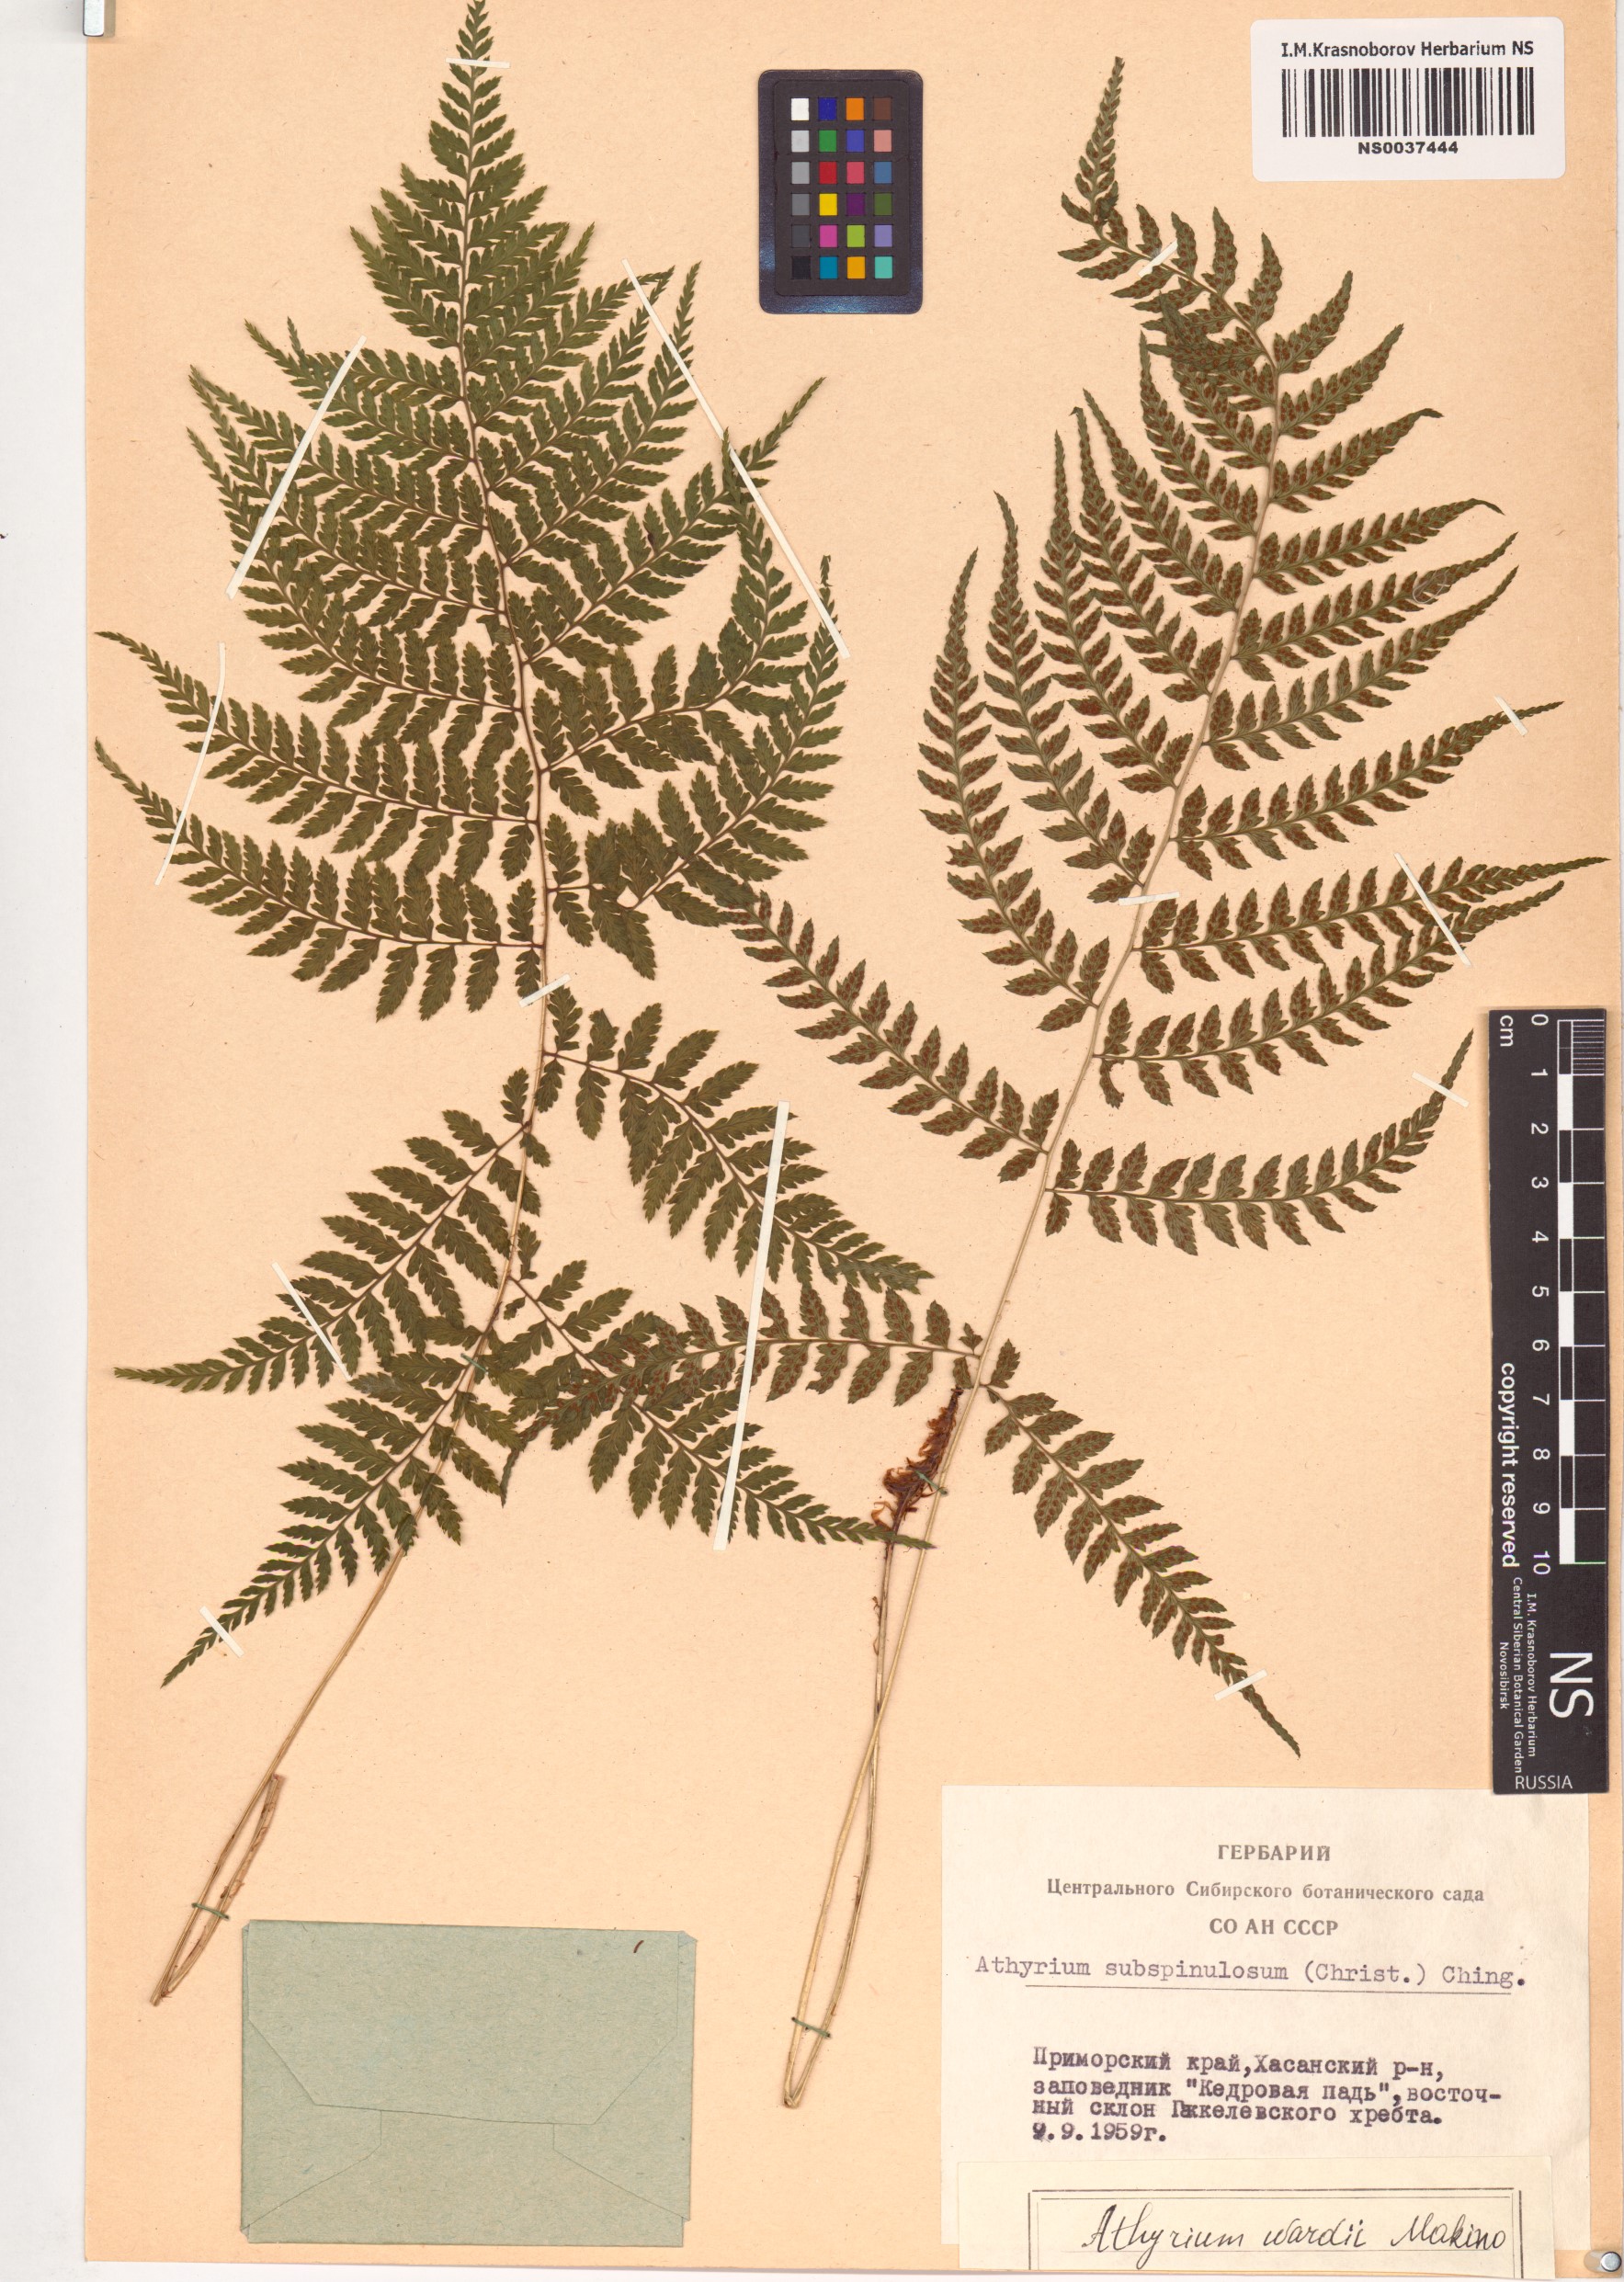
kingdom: Plantae
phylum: Tracheophyta
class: Polypodiopsida
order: Polypodiales
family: Athyriaceae
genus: Athyrium
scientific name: Athyrium wardii
